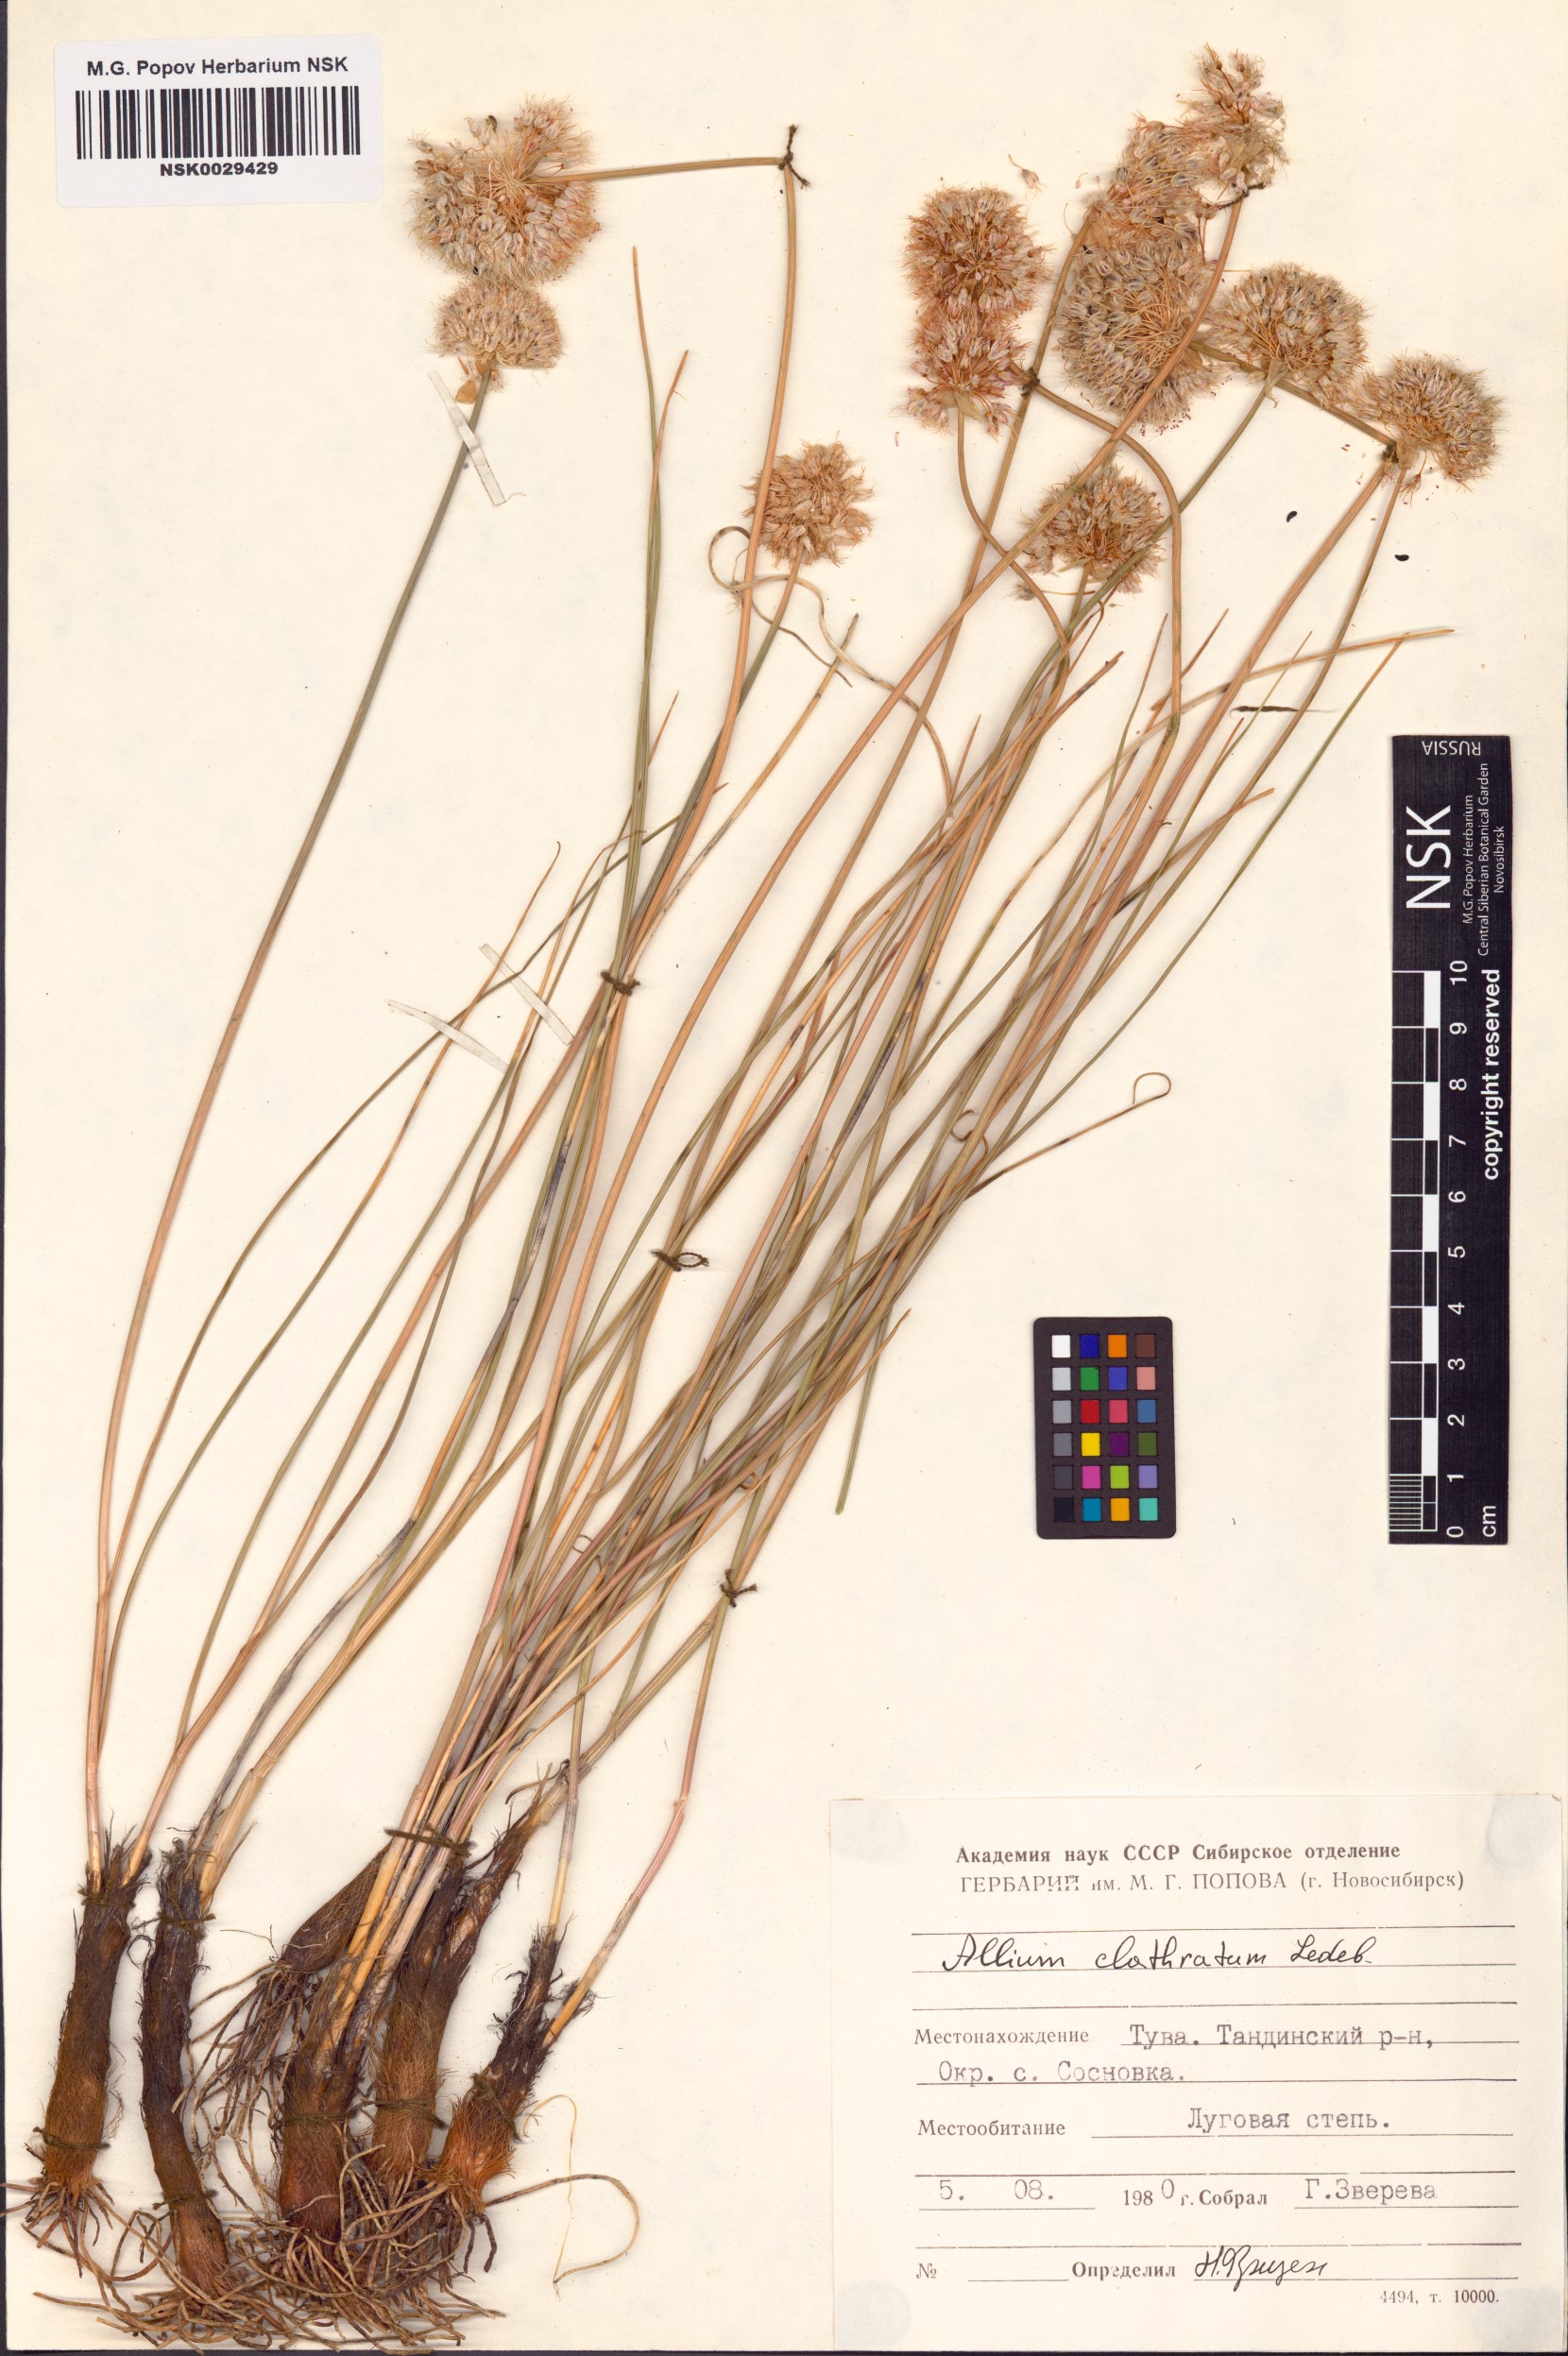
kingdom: Plantae
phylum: Tracheophyta
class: Liliopsida
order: Asparagales
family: Amaryllidaceae
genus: Allium
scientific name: Allium clathratum
